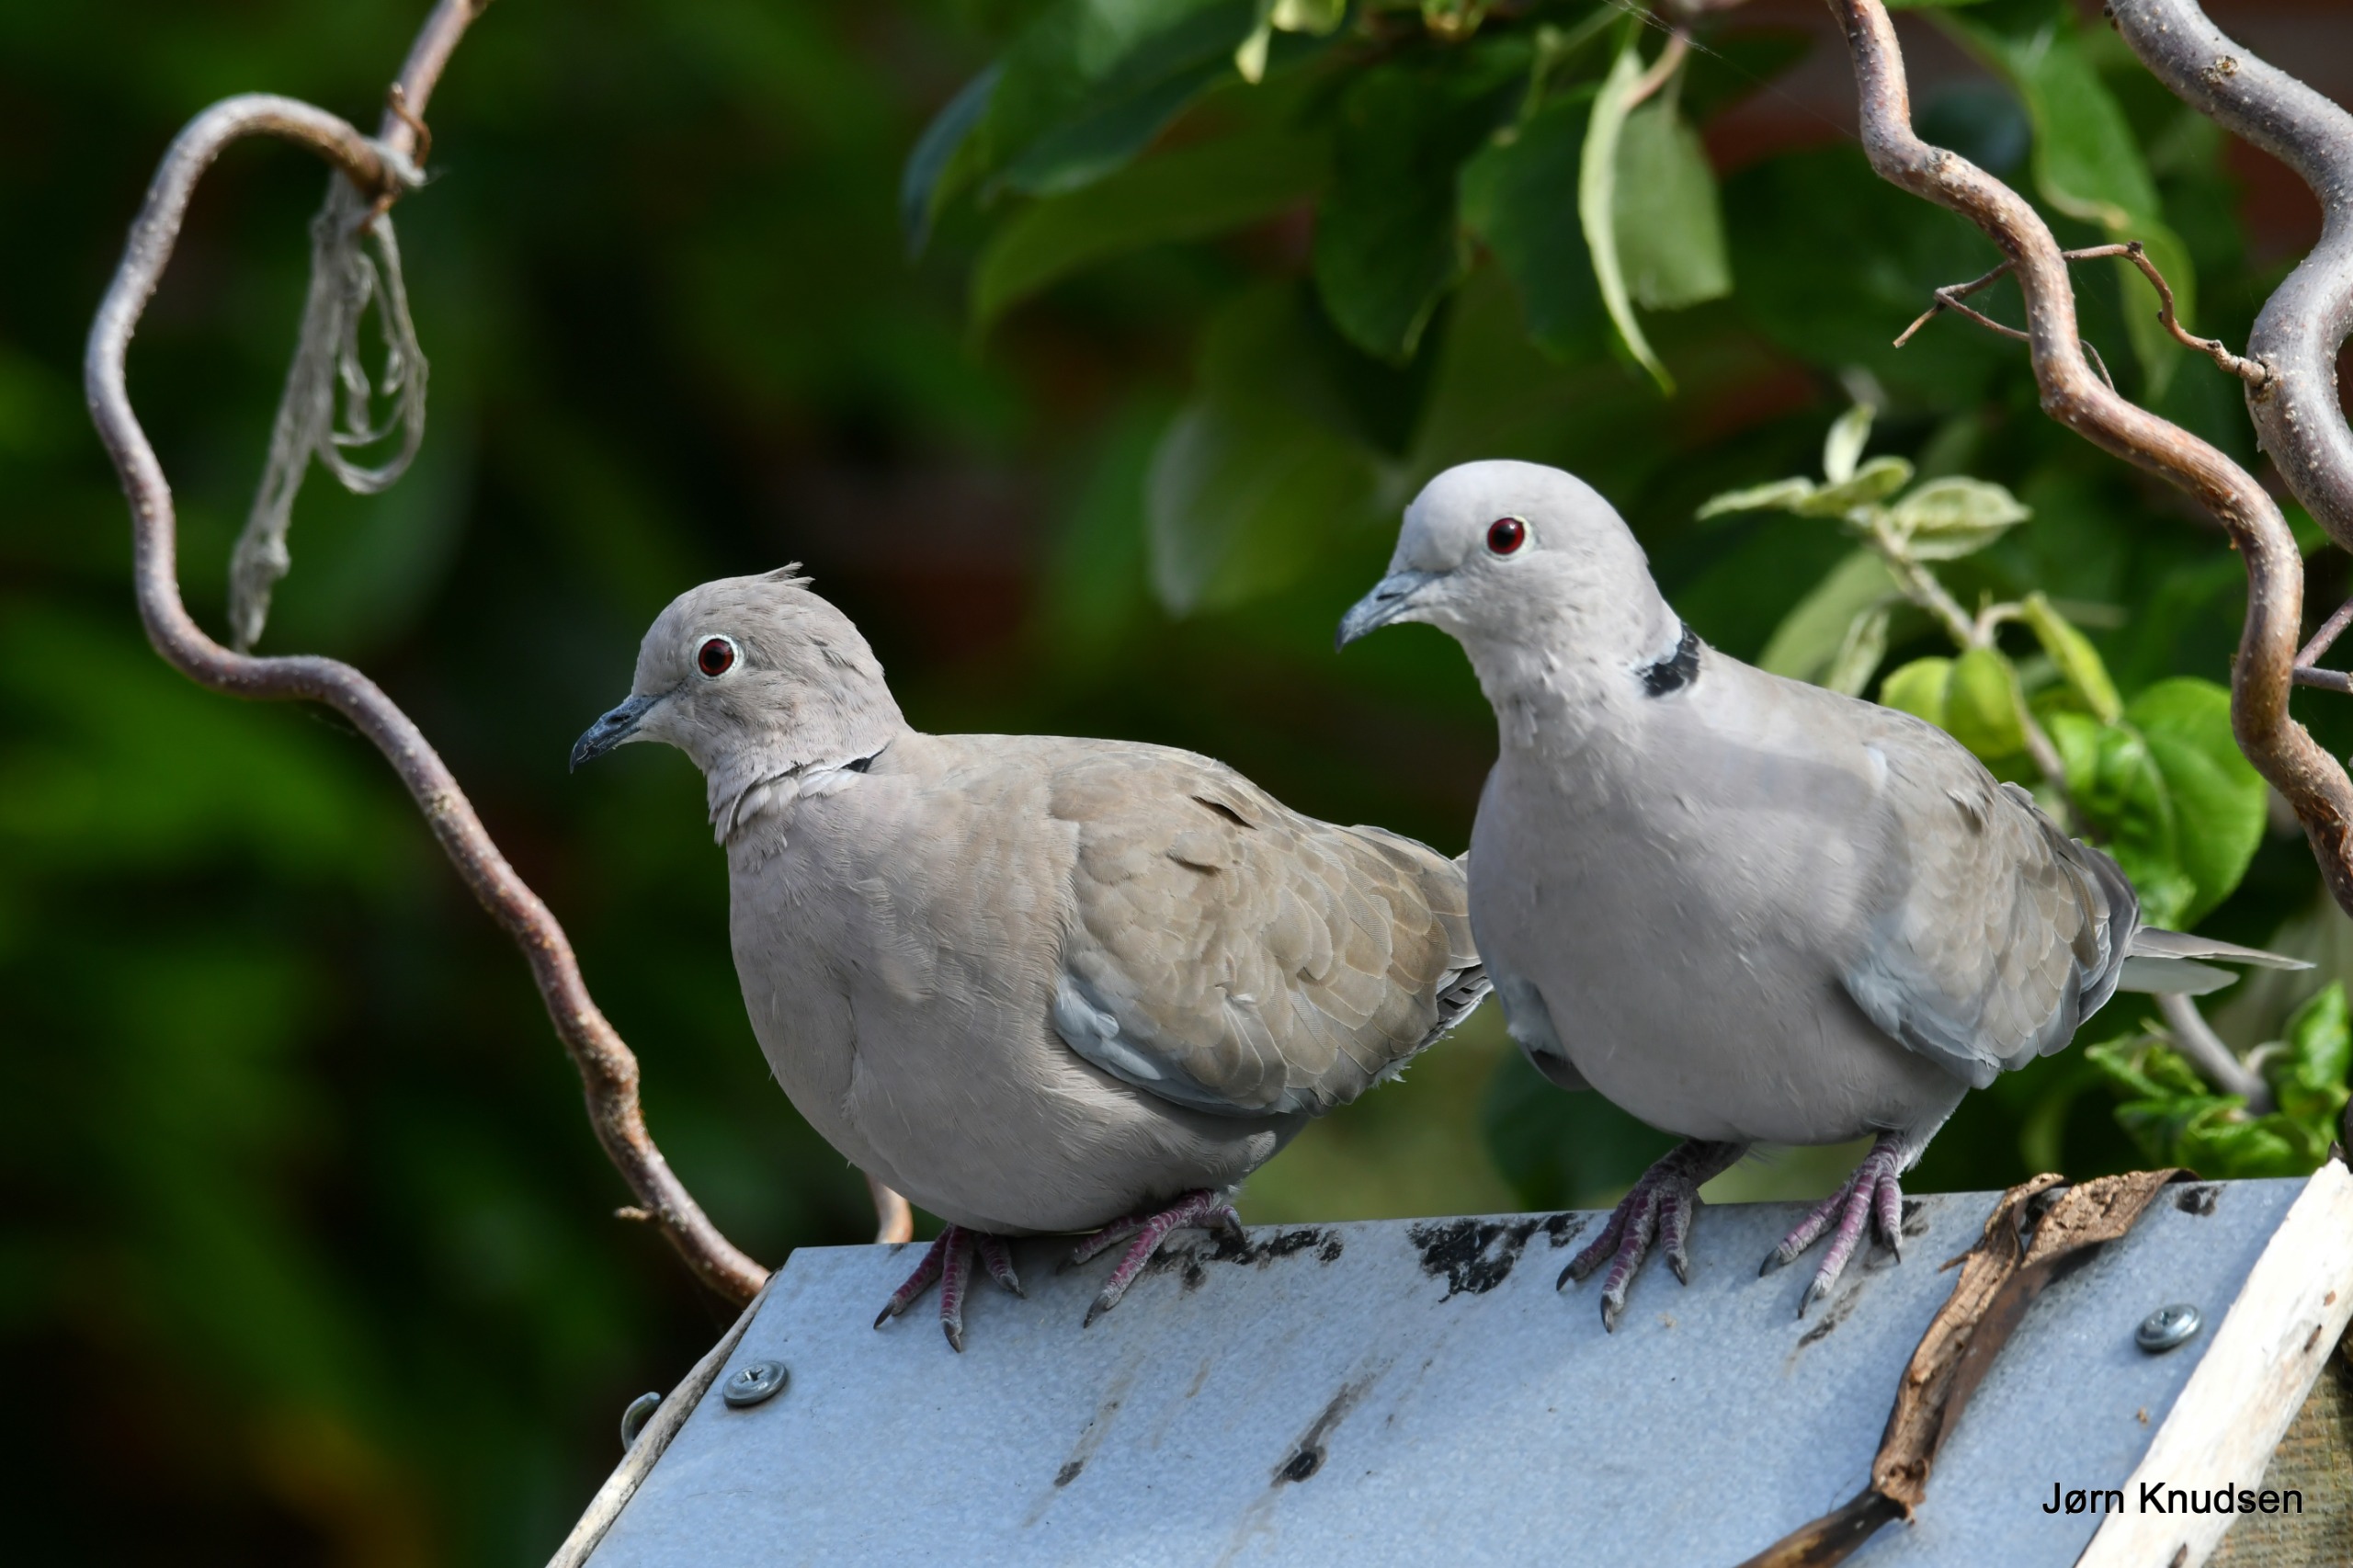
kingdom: Animalia
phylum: Chordata
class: Aves
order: Columbiformes
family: Columbidae
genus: Streptopelia
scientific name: Streptopelia decaocto
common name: Tyrkerdue
